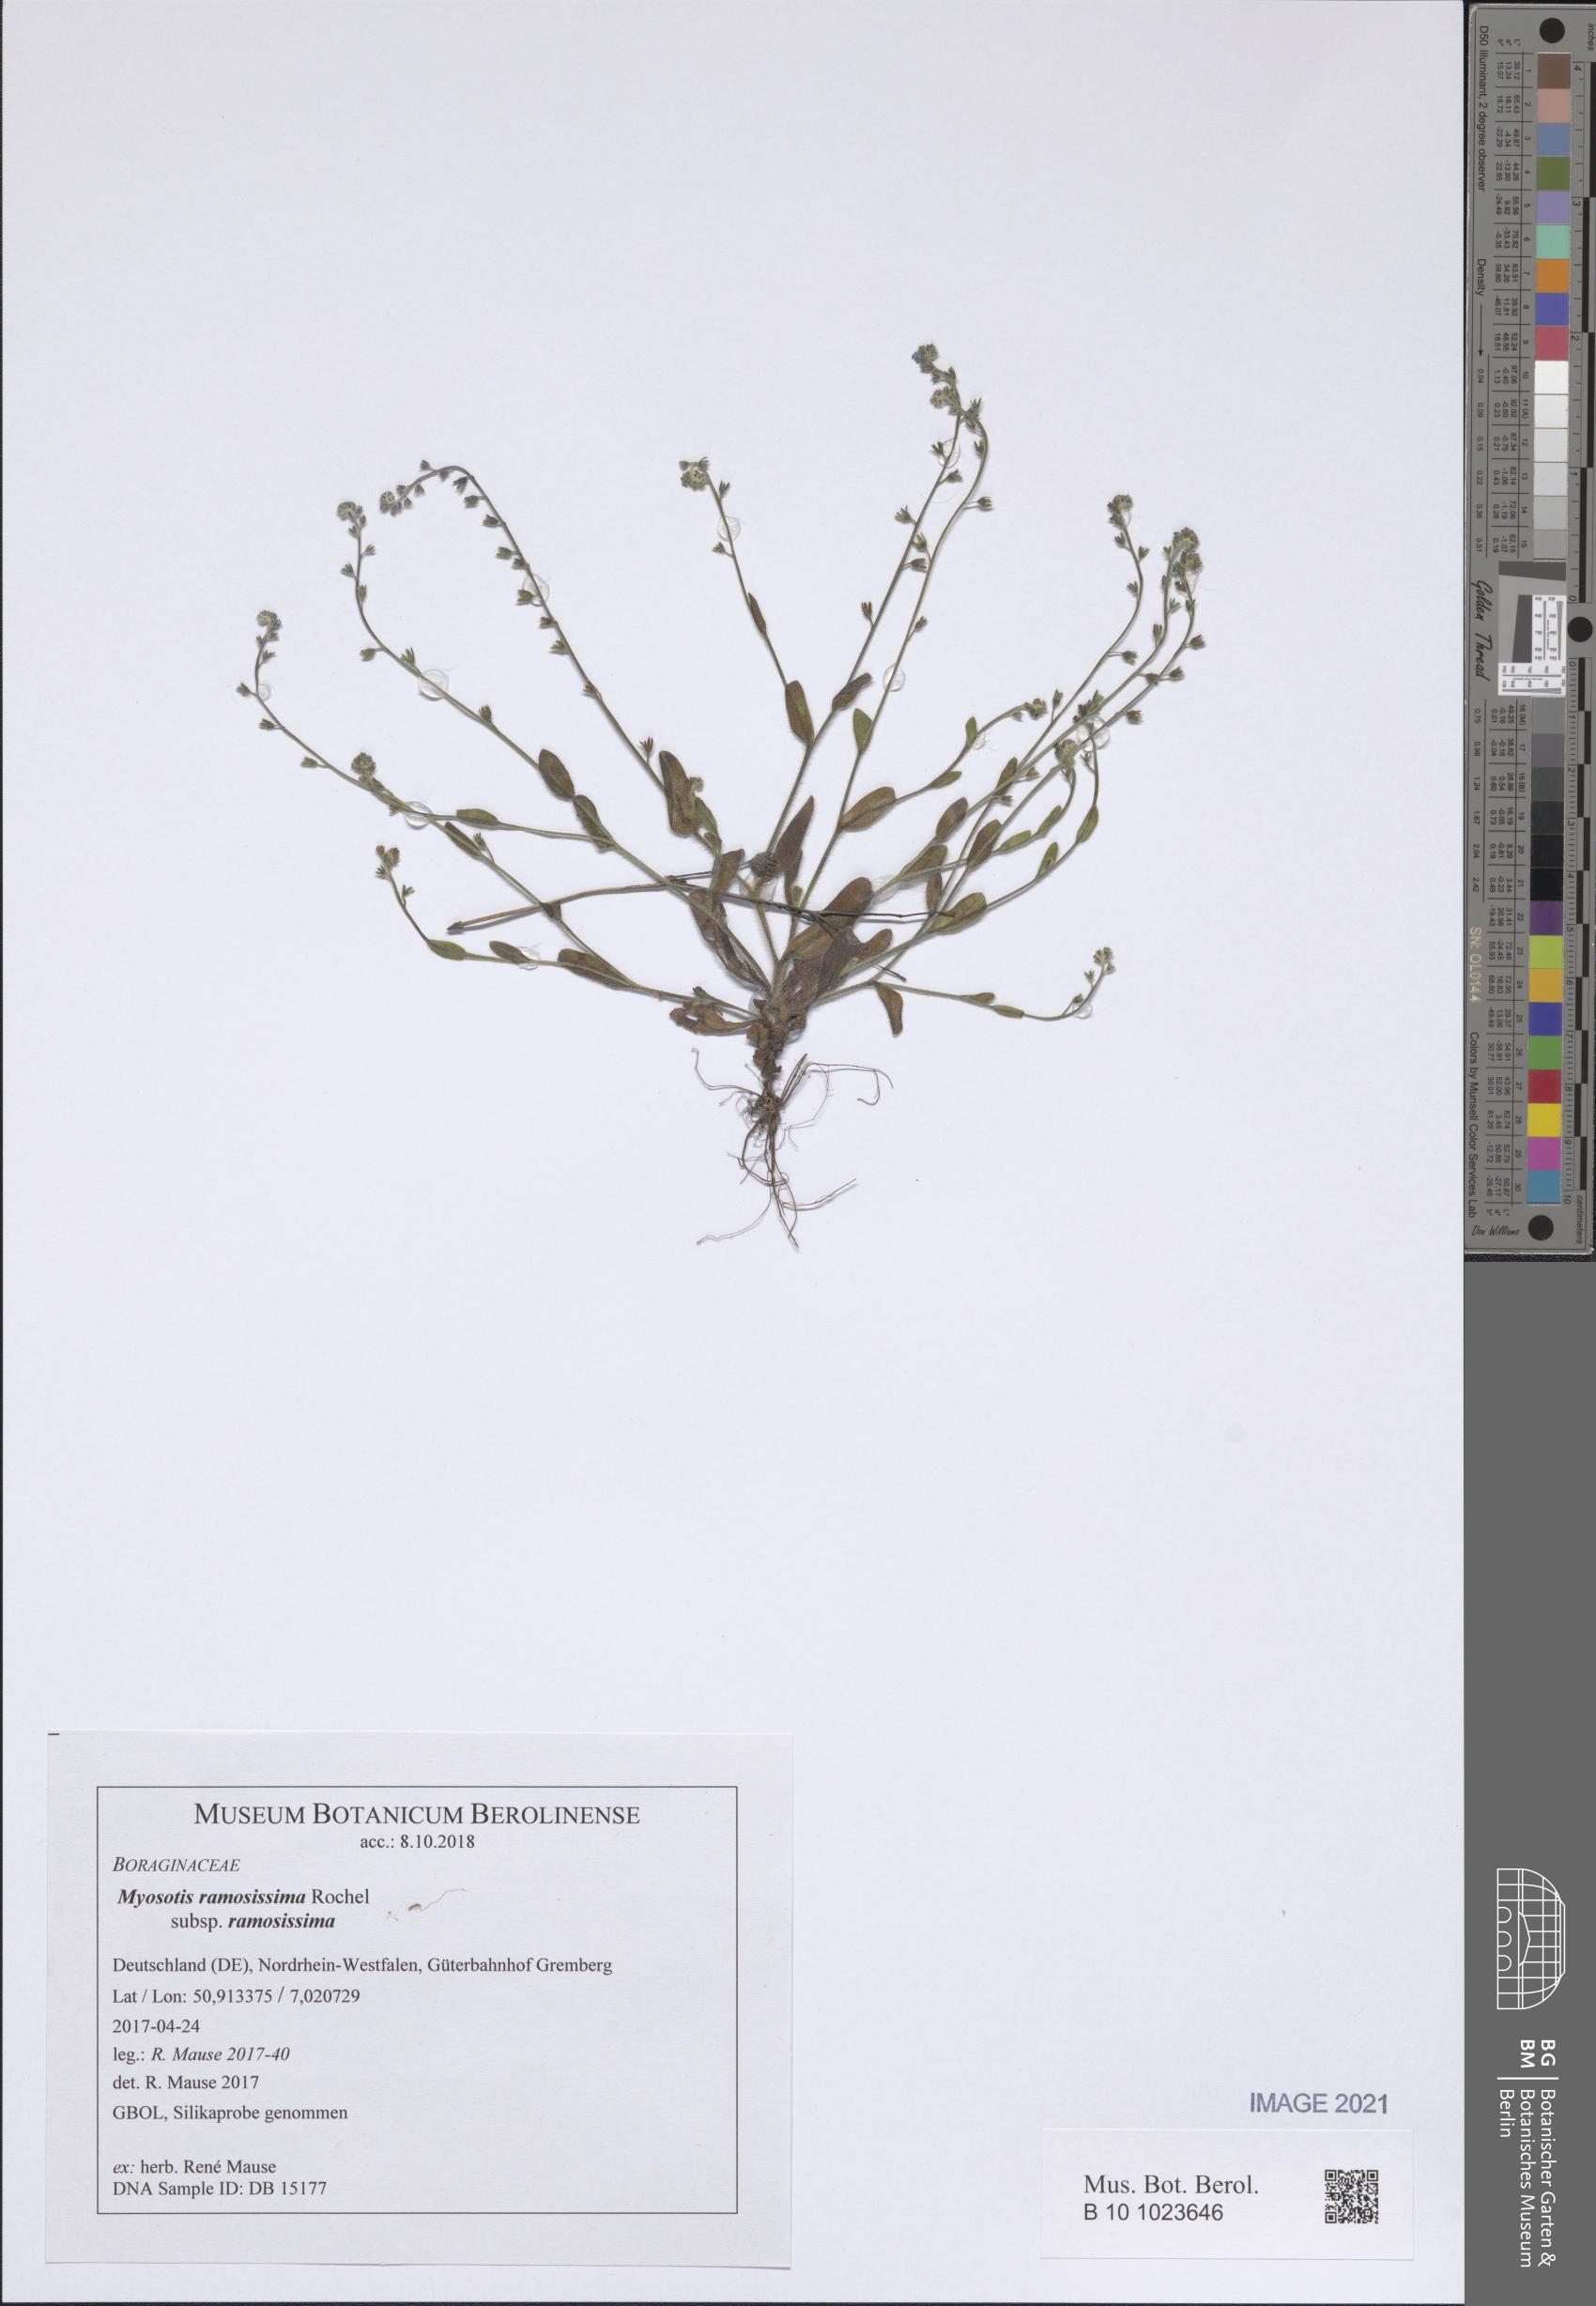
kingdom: Plantae
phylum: Tracheophyta
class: Magnoliopsida
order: Boraginales
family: Boraginaceae
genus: Myosotis
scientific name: Myosotis ramosissima
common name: Early forget-me-not
